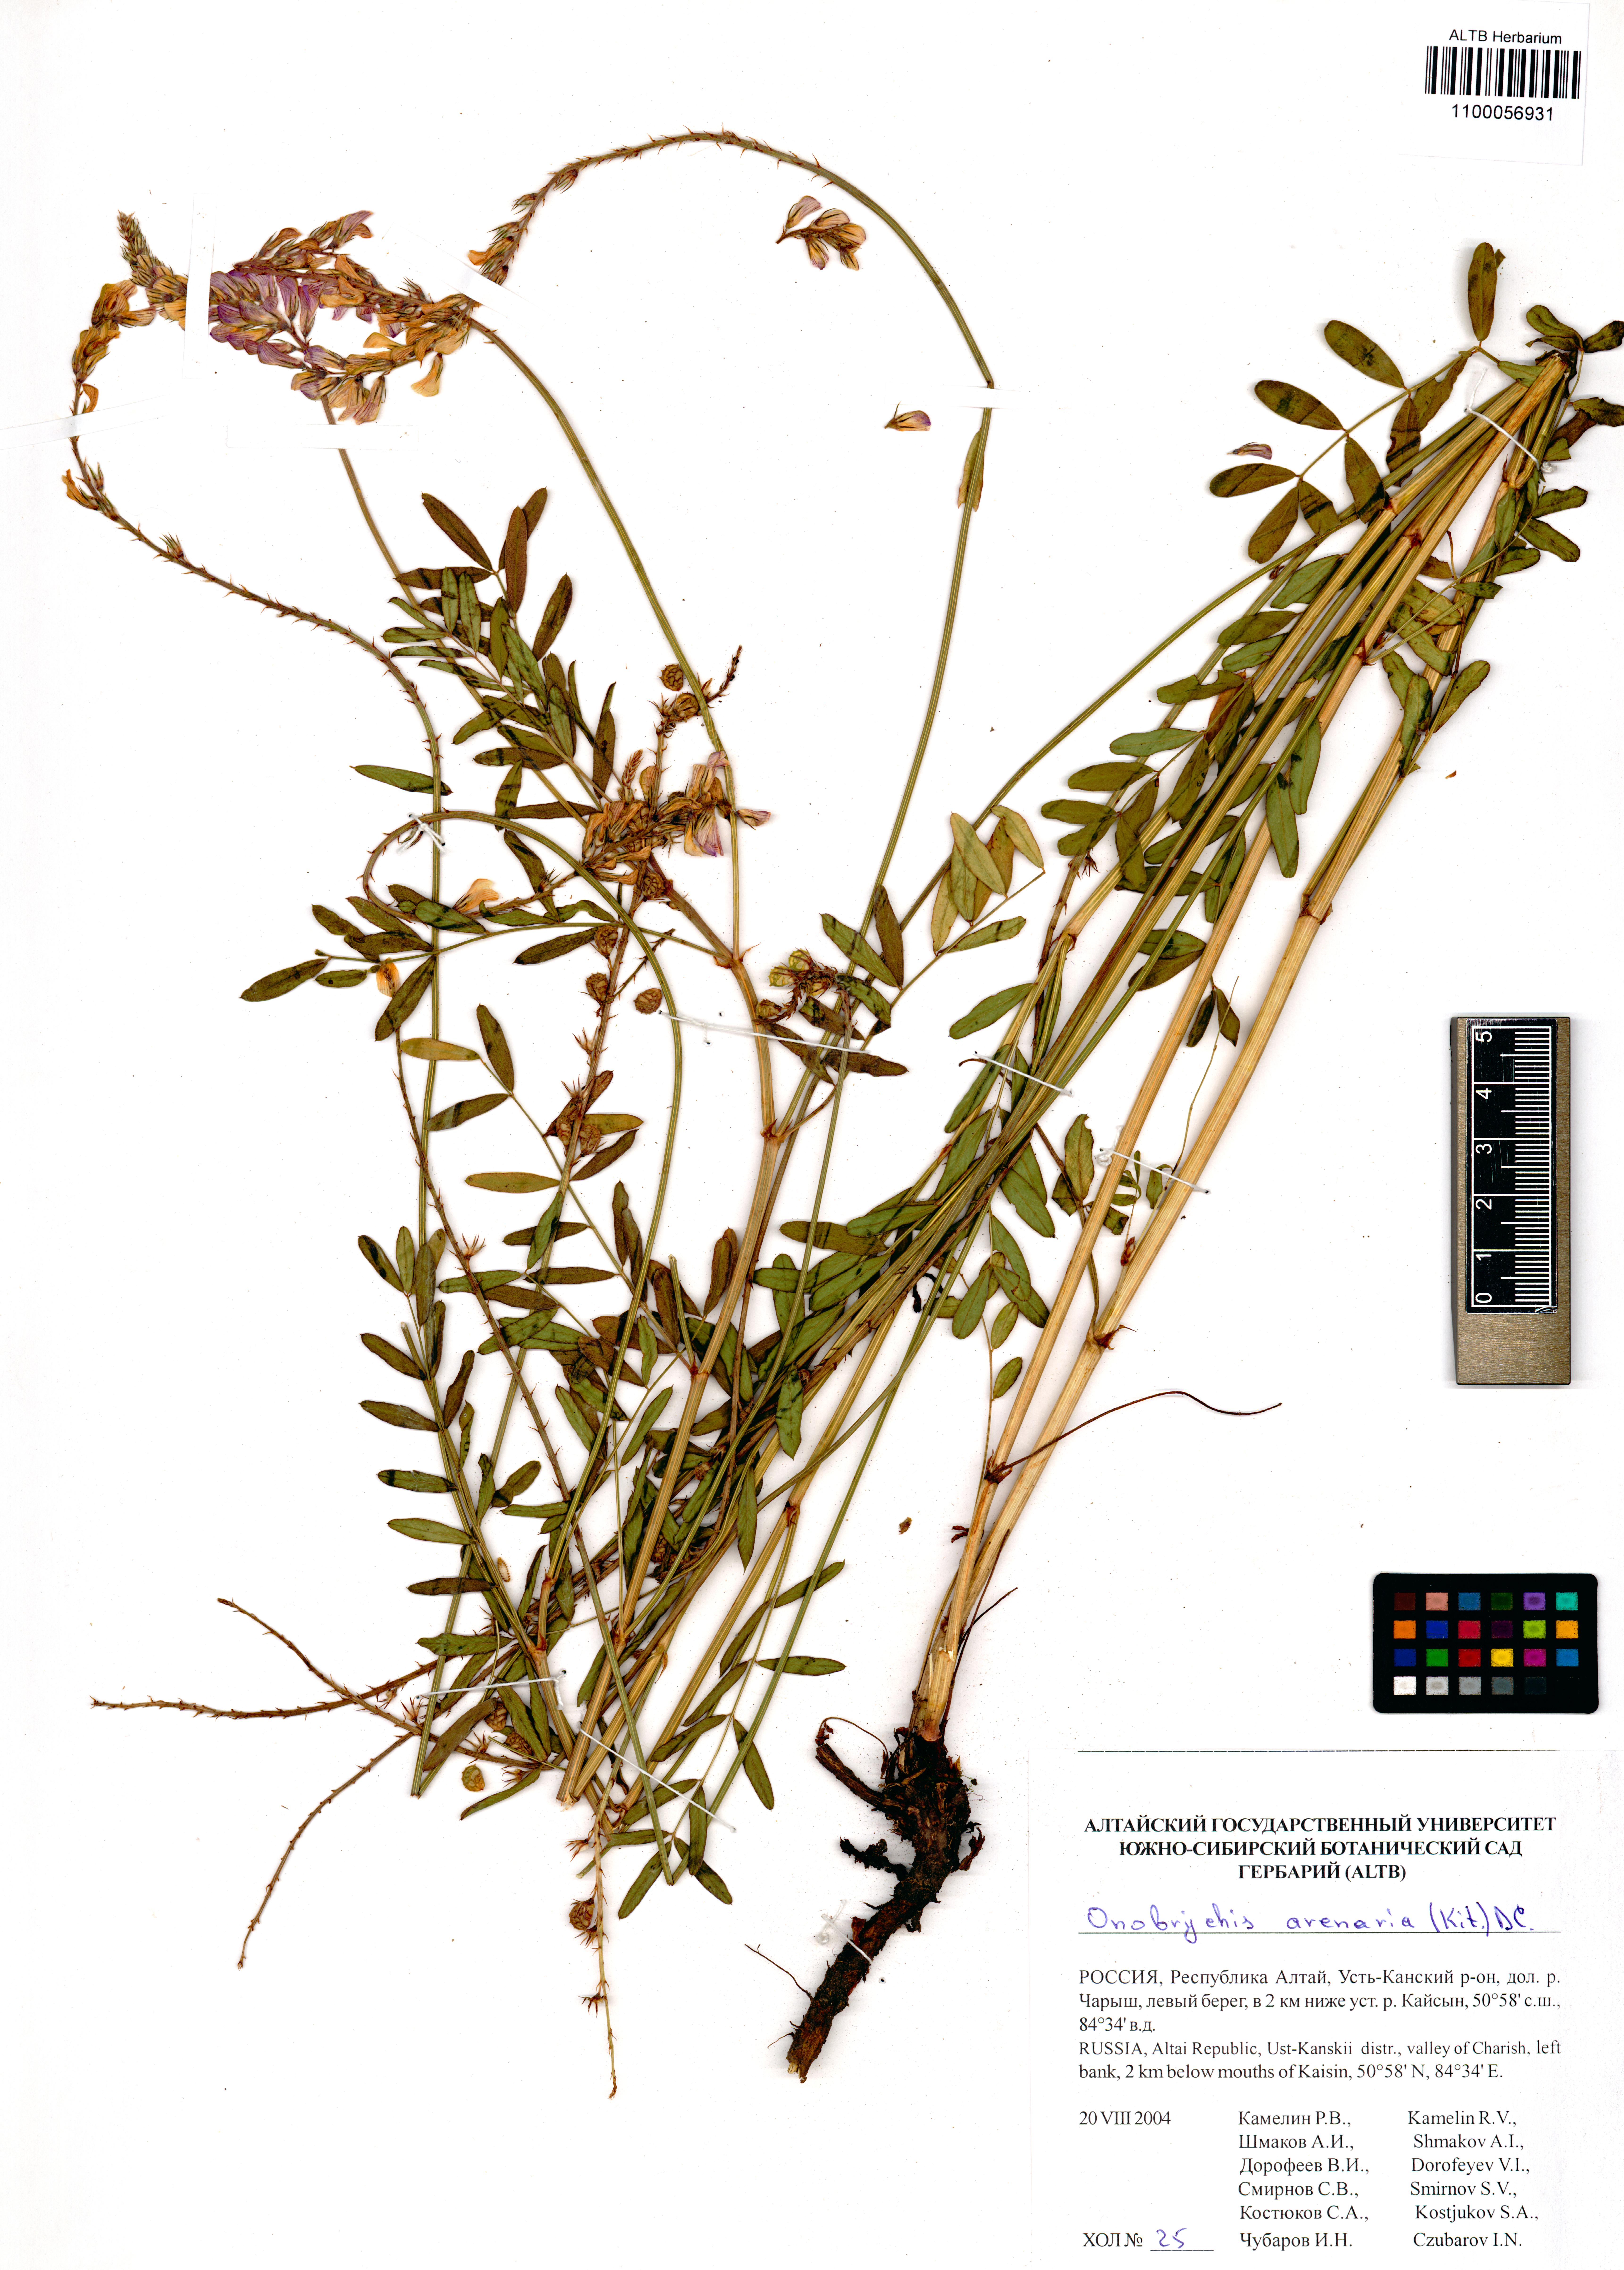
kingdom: Plantae
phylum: Tracheophyta
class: Magnoliopsida
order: Fabales
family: Fabaceae
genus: Onobrychis
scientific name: Onobrychis arenaria
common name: Sand esparcet
